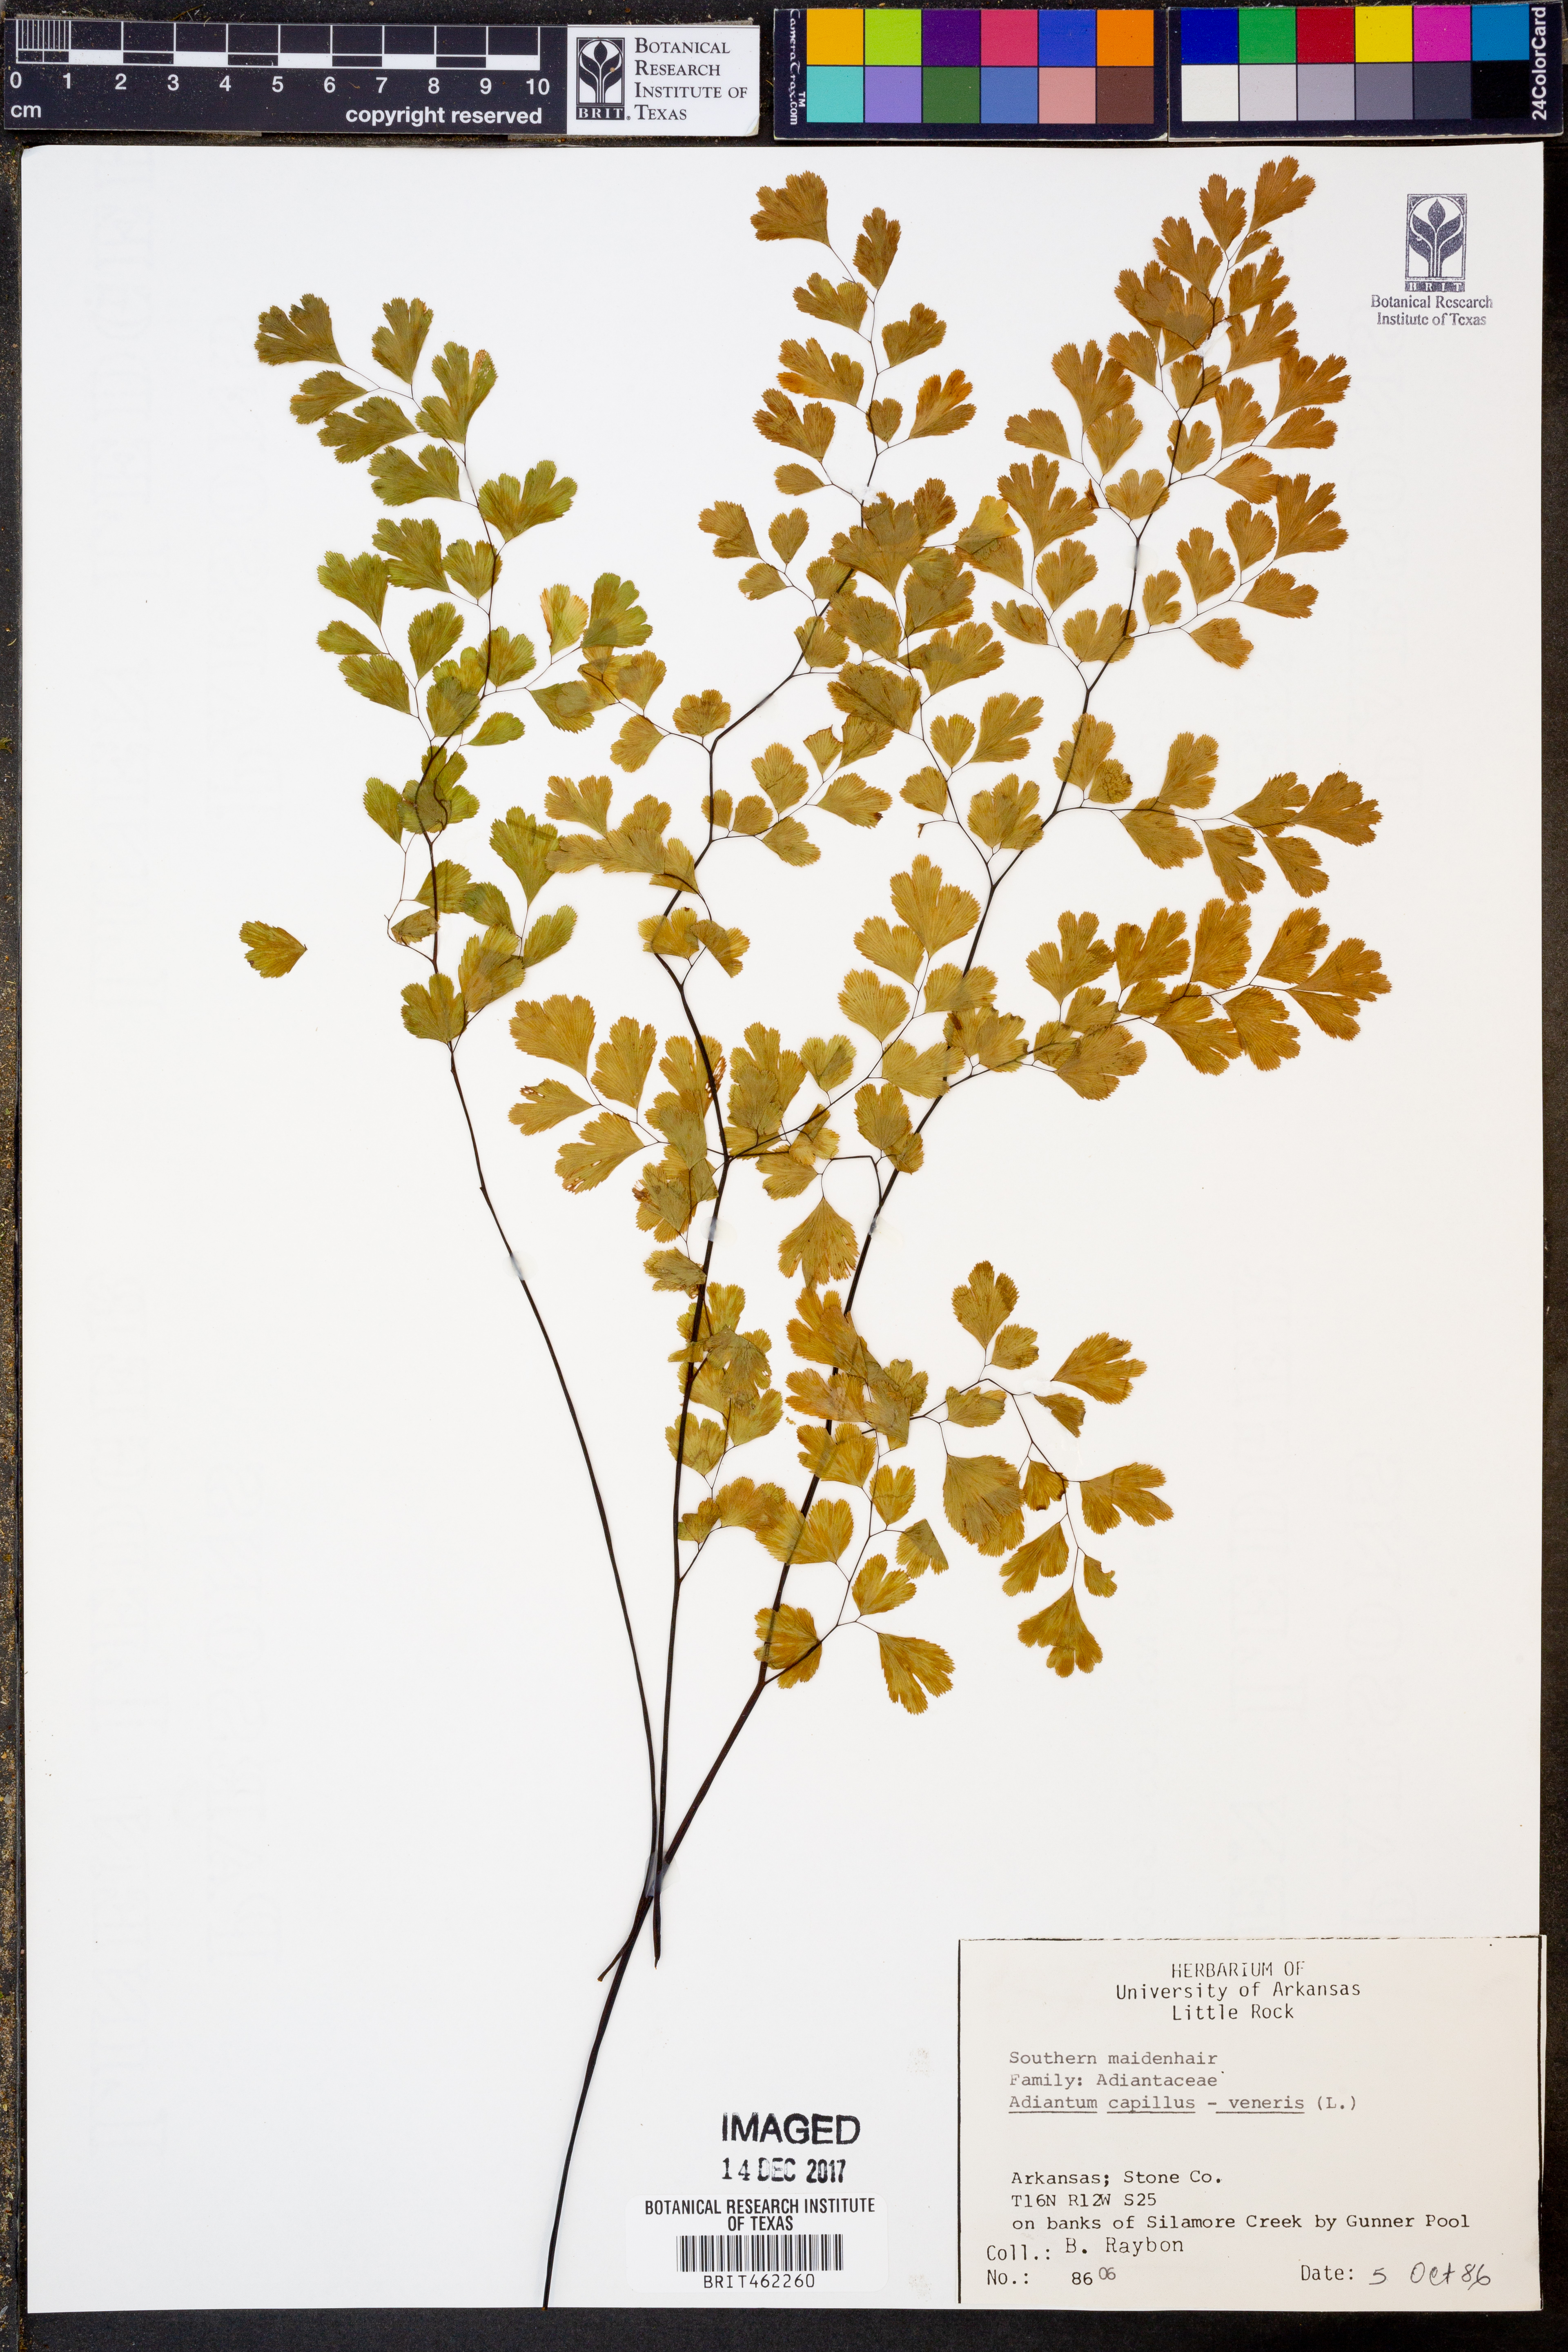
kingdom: Plantae
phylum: Tracheophyta
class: Polypodiopsida
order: Polypodiales
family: Pteridaceae
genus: Adiantum
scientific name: Adiantum capillus-veneris
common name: Maidenhair fern
